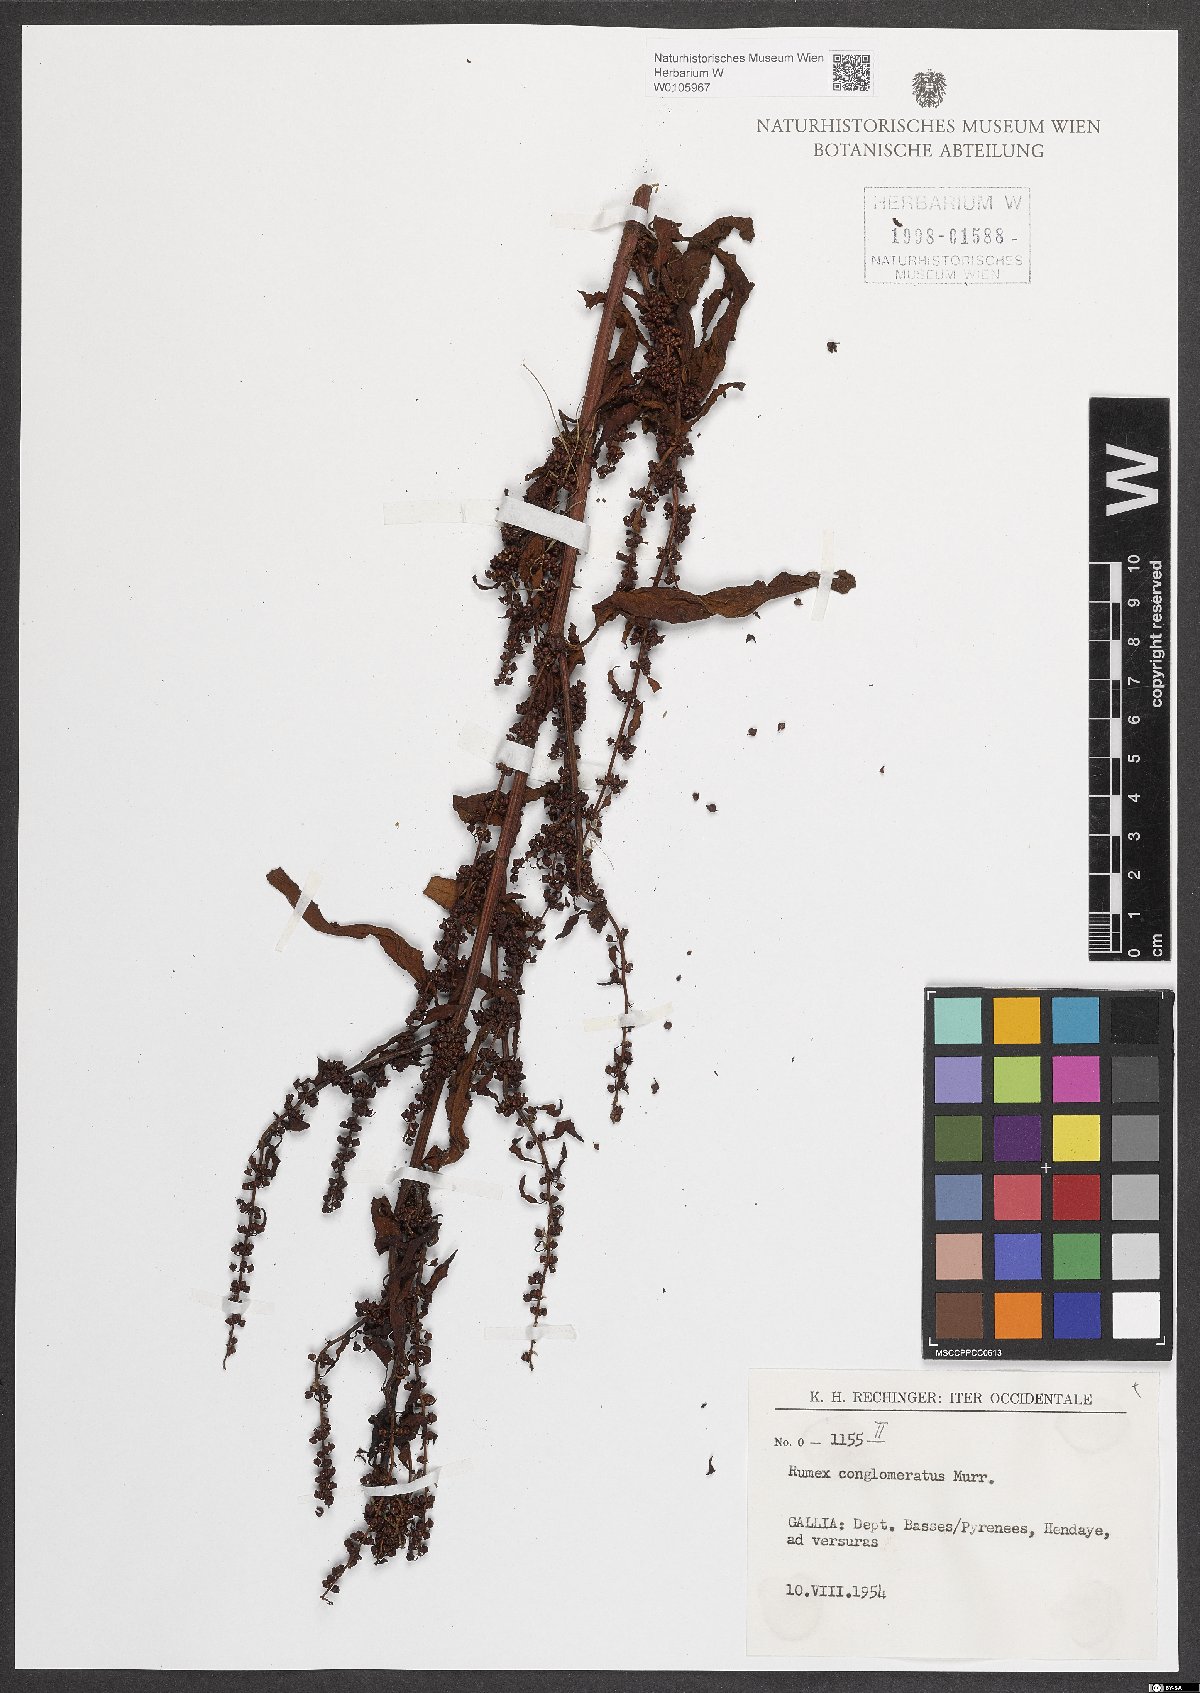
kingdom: Plantae
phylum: Tracheophyta
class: Magnoliopsida
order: Caryophyllales
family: Polygonaceae
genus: Rumex
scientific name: Rumex conglomeratus
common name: Clustered dock
